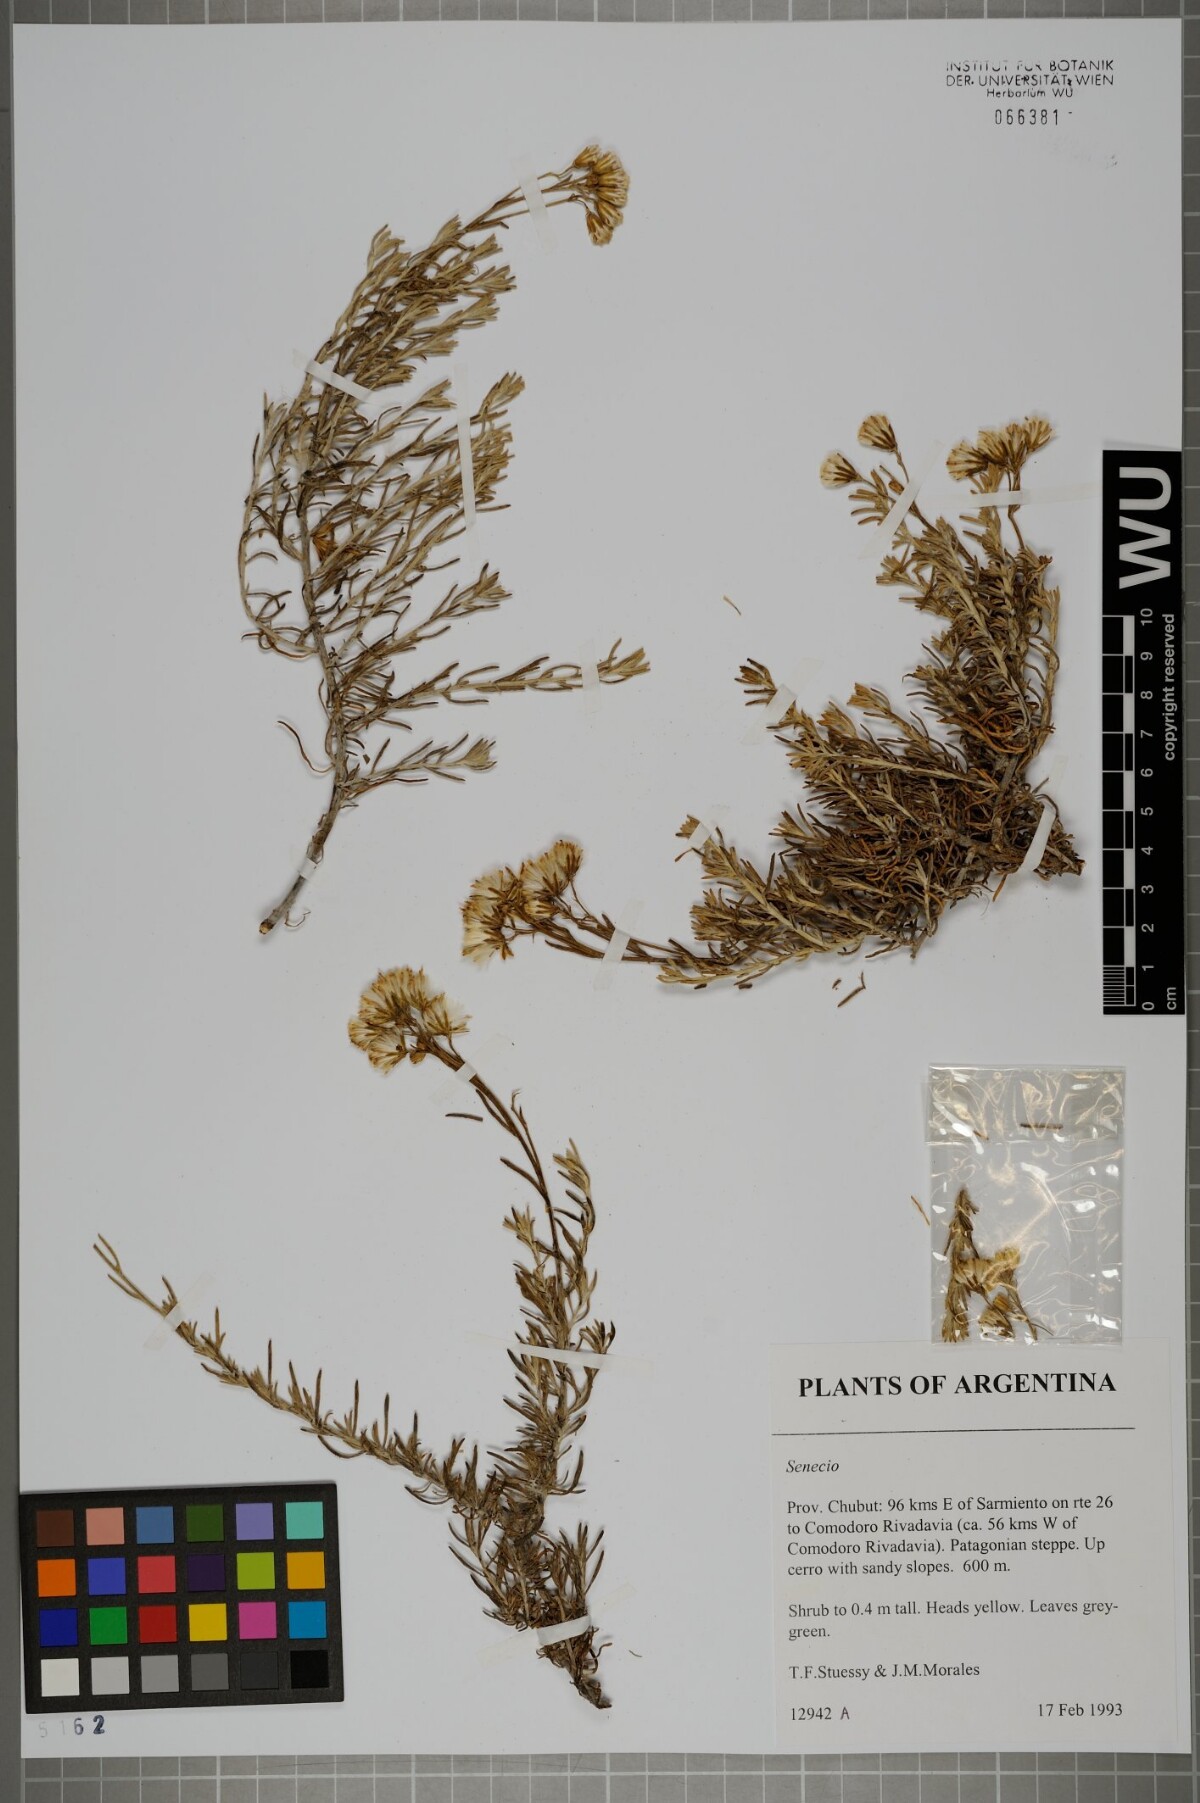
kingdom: Plantae
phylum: Tracheophyta
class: Magnoliopsida
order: Asterales
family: Asteraceae
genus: Senecio
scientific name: Senecio
